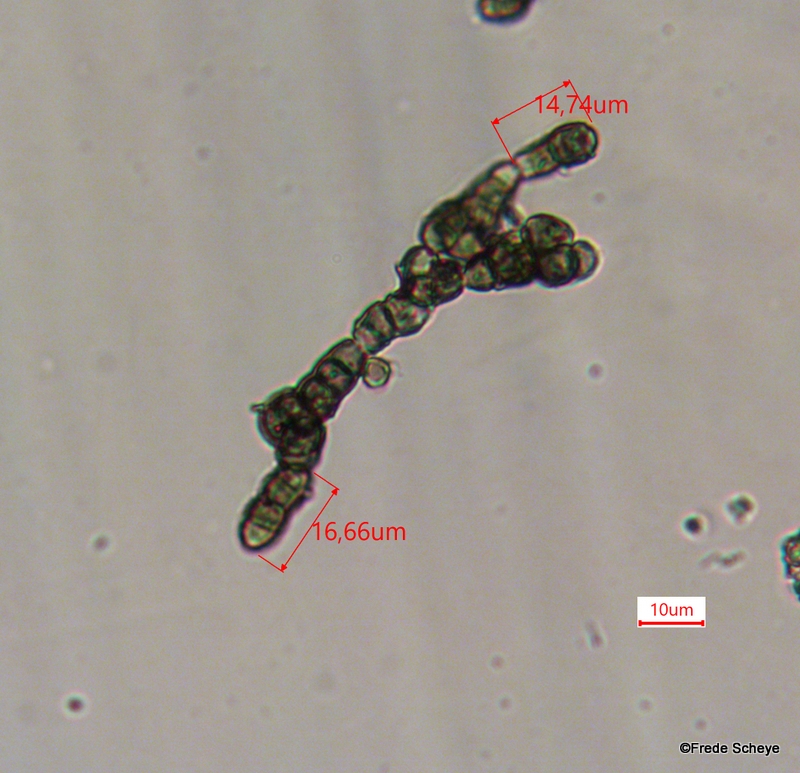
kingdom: Fungi
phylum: Ascomycota
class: Leotiomycetes
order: Helotiales
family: Mollisiaceae
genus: Trimmatostroma
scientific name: Trimmatostroma betulinum
